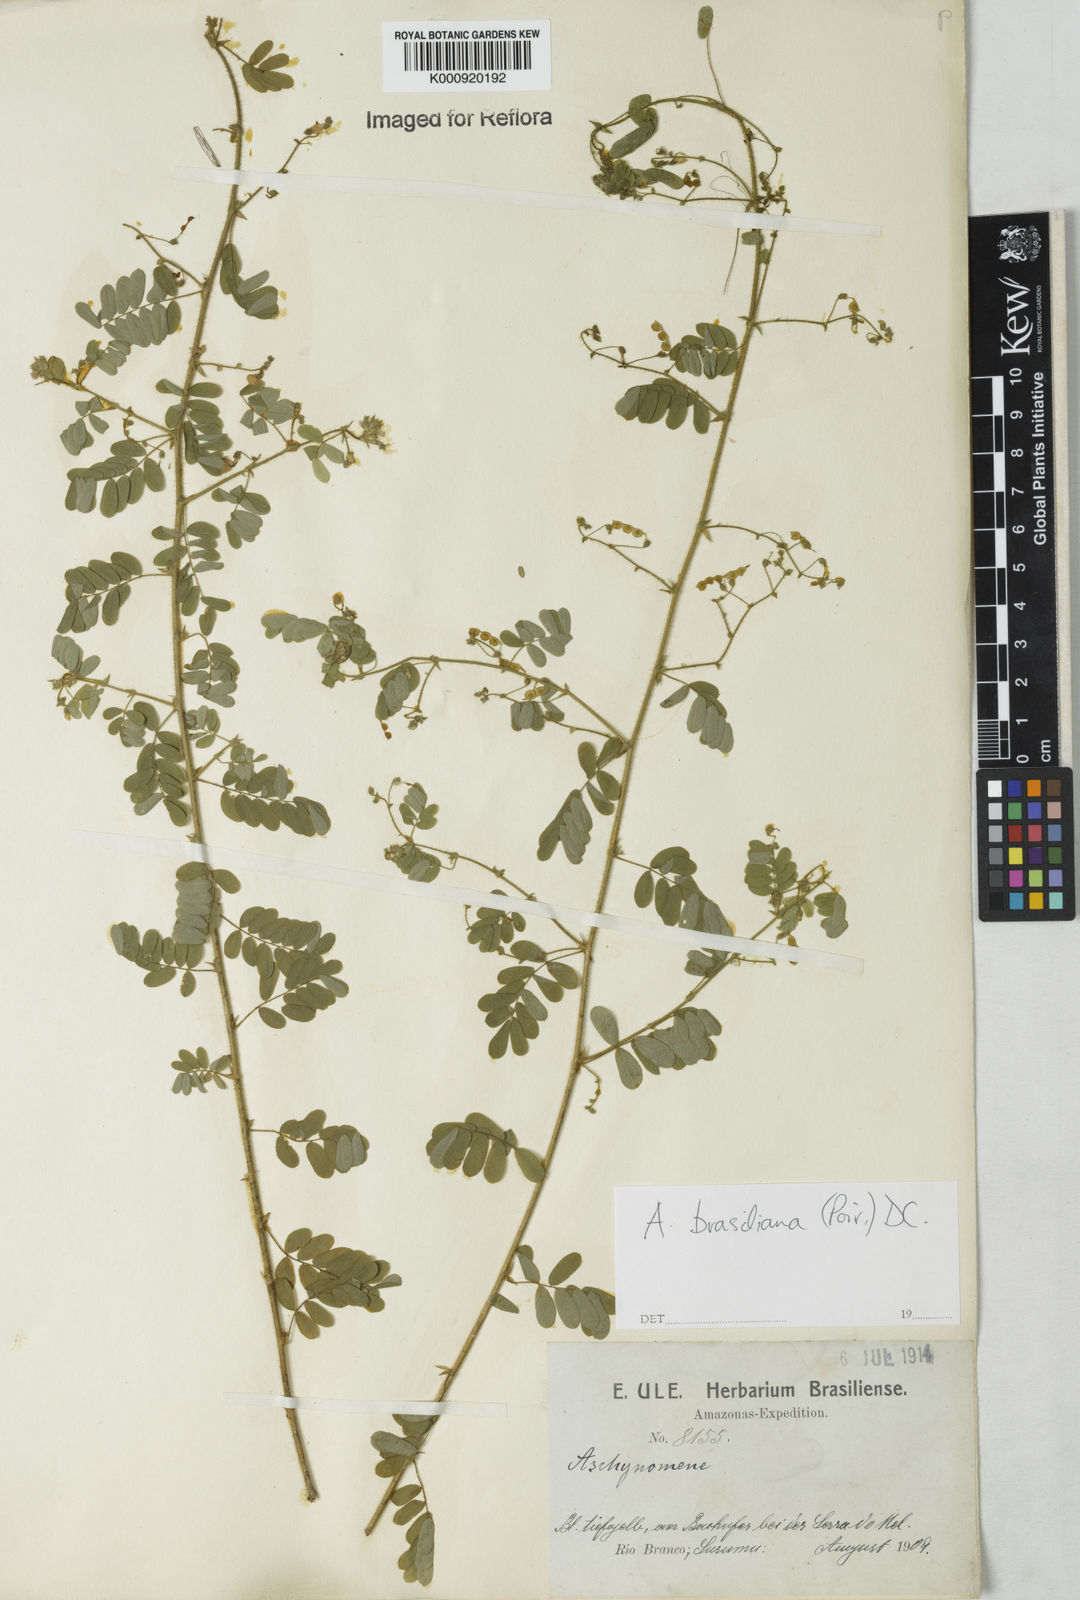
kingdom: Plantae
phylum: Tracheophyta
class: Magnoliopsida
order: Fabales
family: Fabaceae
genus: Ctenodon
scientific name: Ctenodon brasilianus
